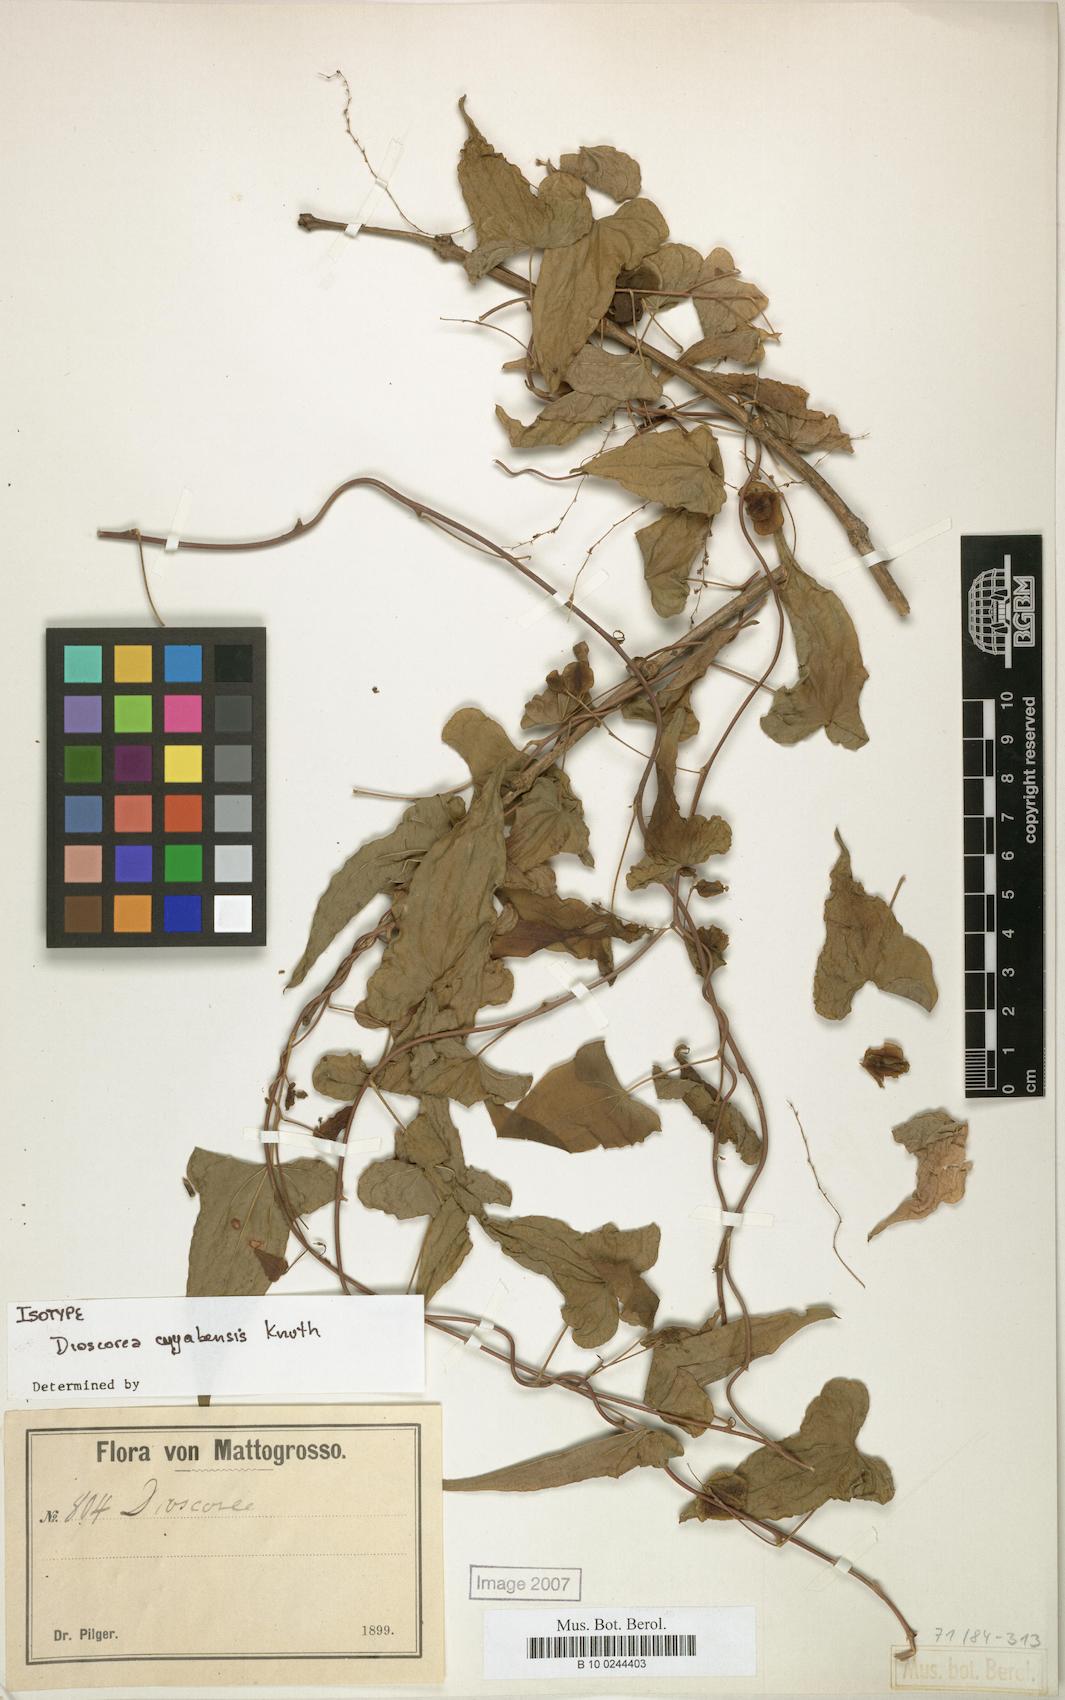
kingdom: Plantae
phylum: Tracheophyta
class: Liliopsida
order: Dioscoreales
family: Dioscoreaceae
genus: Dioscorea
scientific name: Dioscorea cuyabensis
